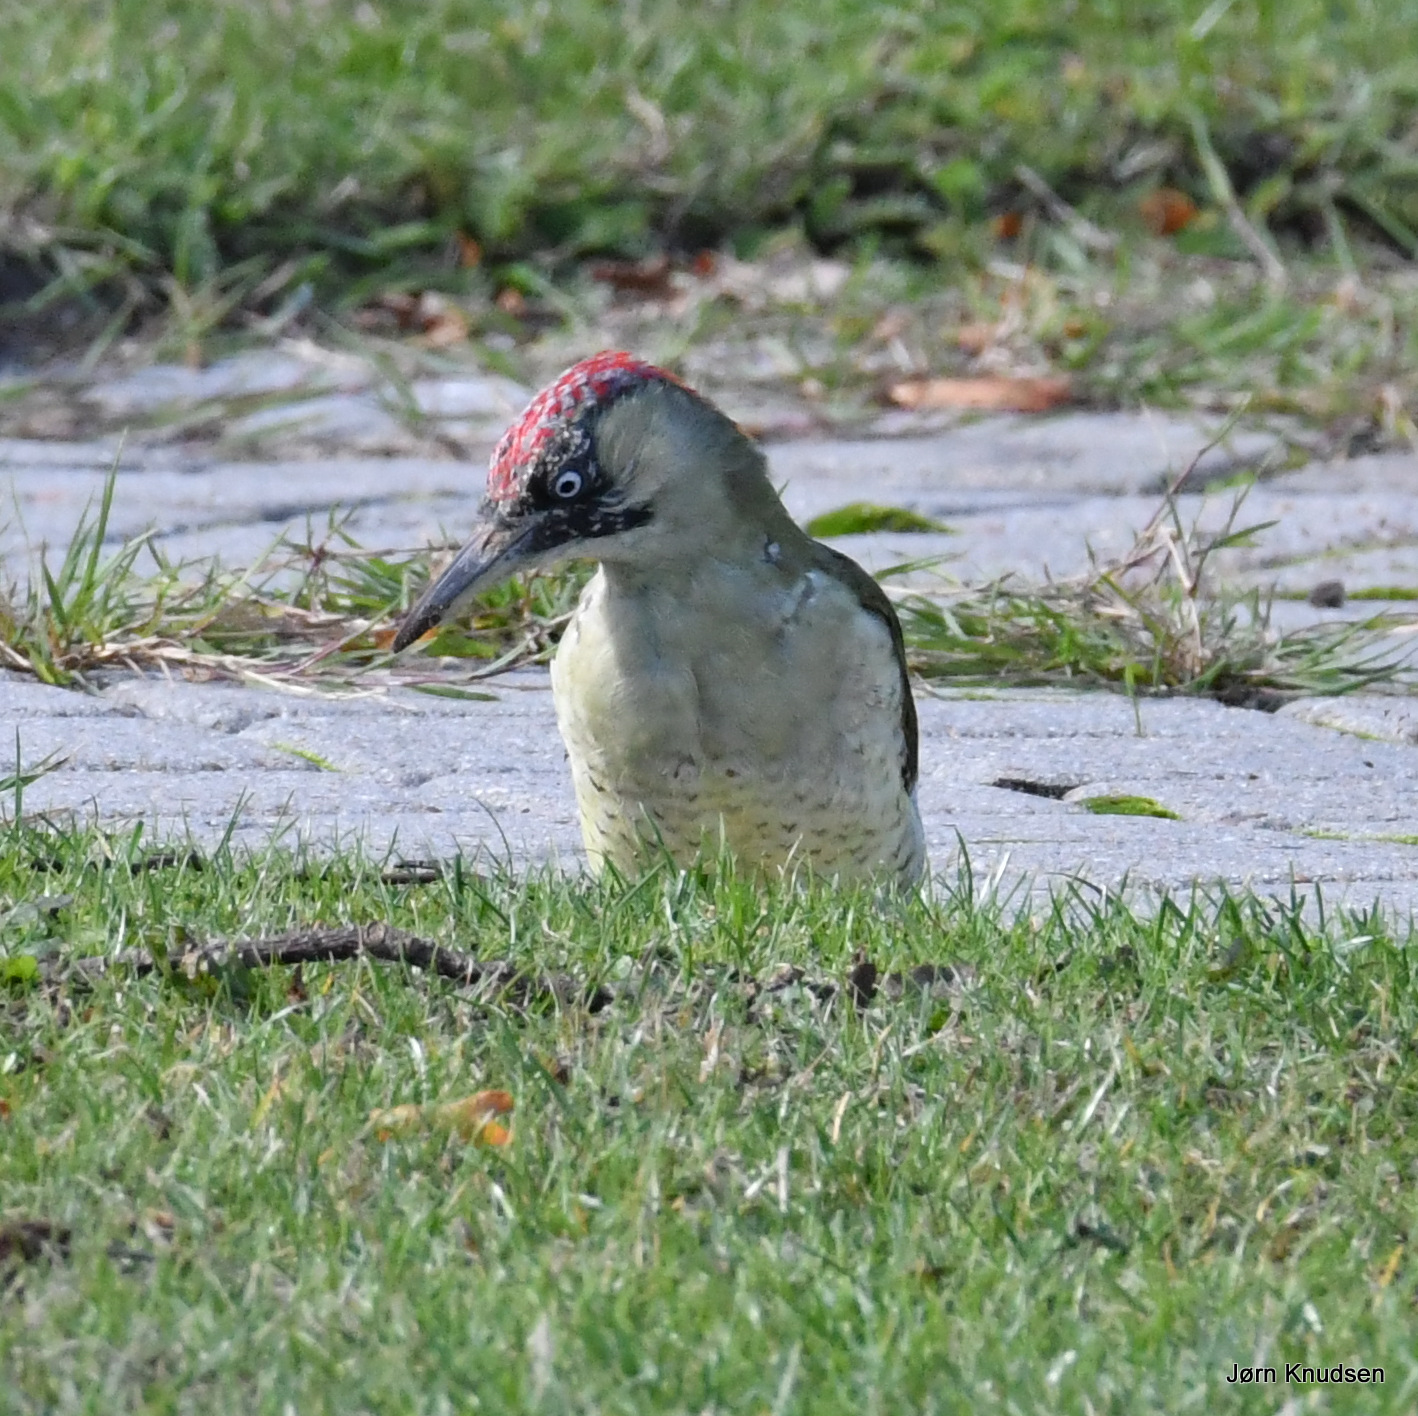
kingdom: Animalia
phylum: Chordata
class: Aves
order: Piciformes
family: Picidae
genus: Picus
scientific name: Picus viridis
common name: Grønspætte
